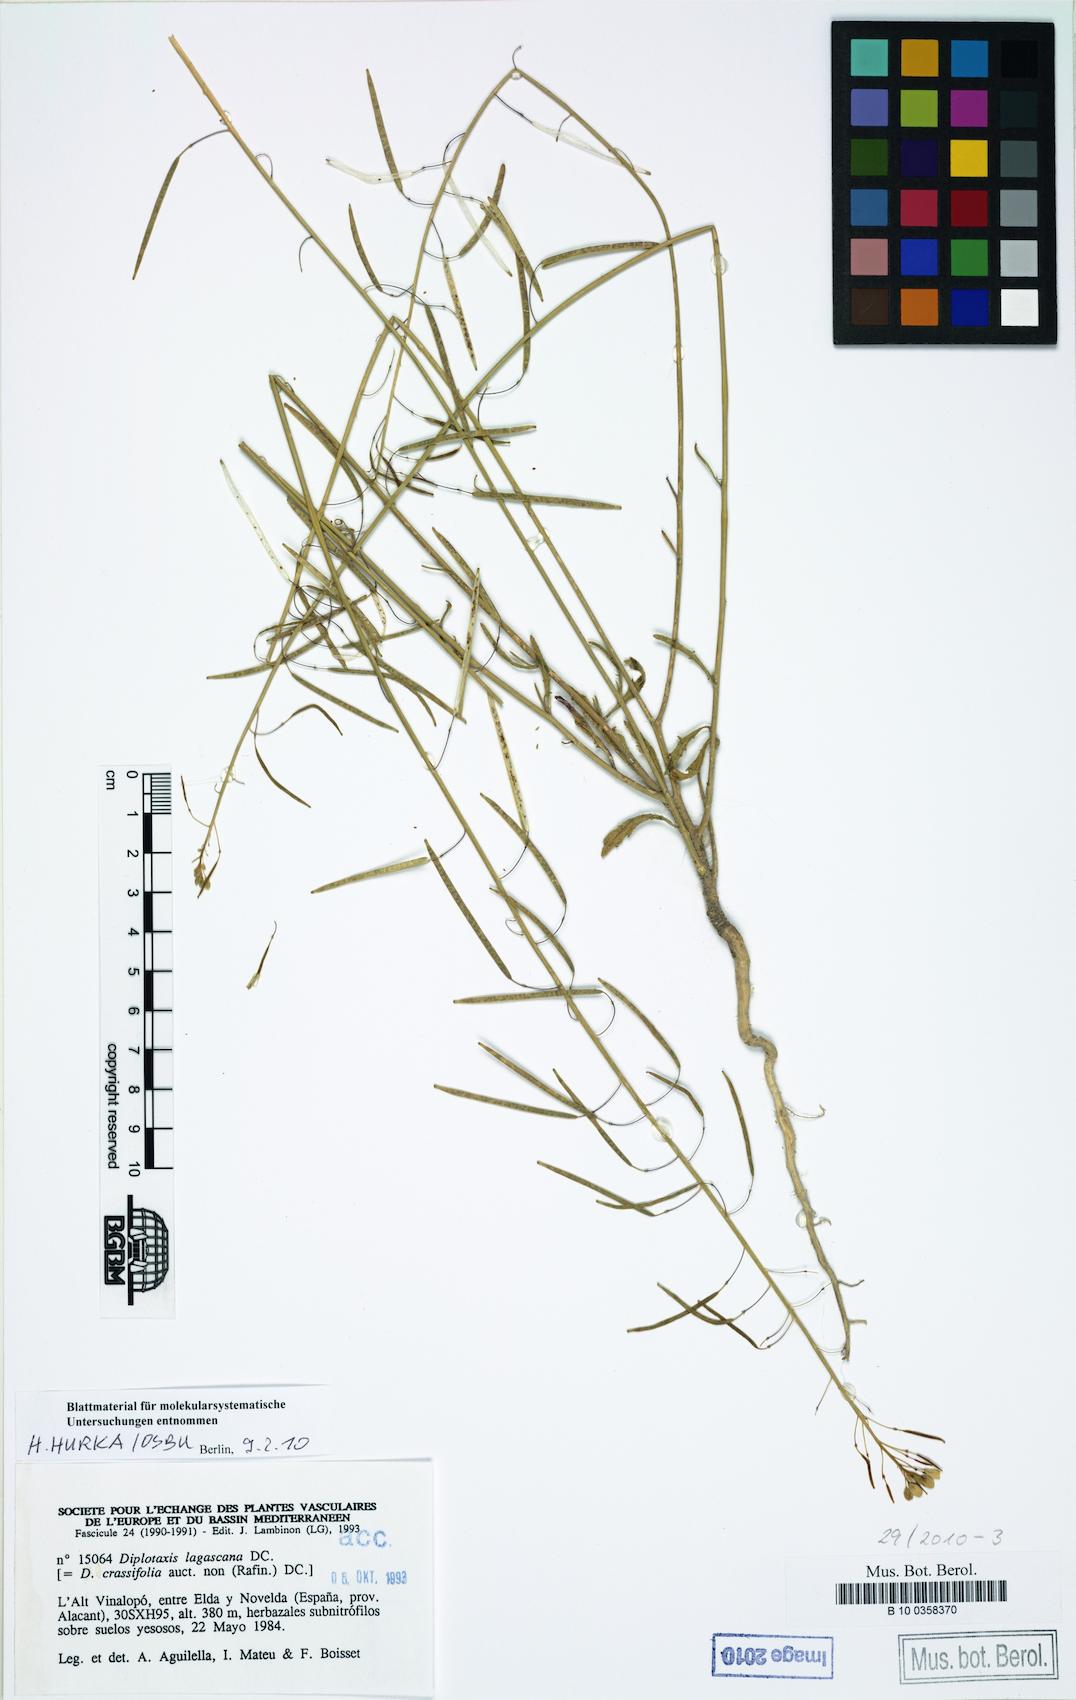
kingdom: Plantae
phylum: Tracheophyta
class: Magnoliopsida
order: Brassicales
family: Brassicaceae
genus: Diplotaxis
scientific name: Diplotaxis lagascana
